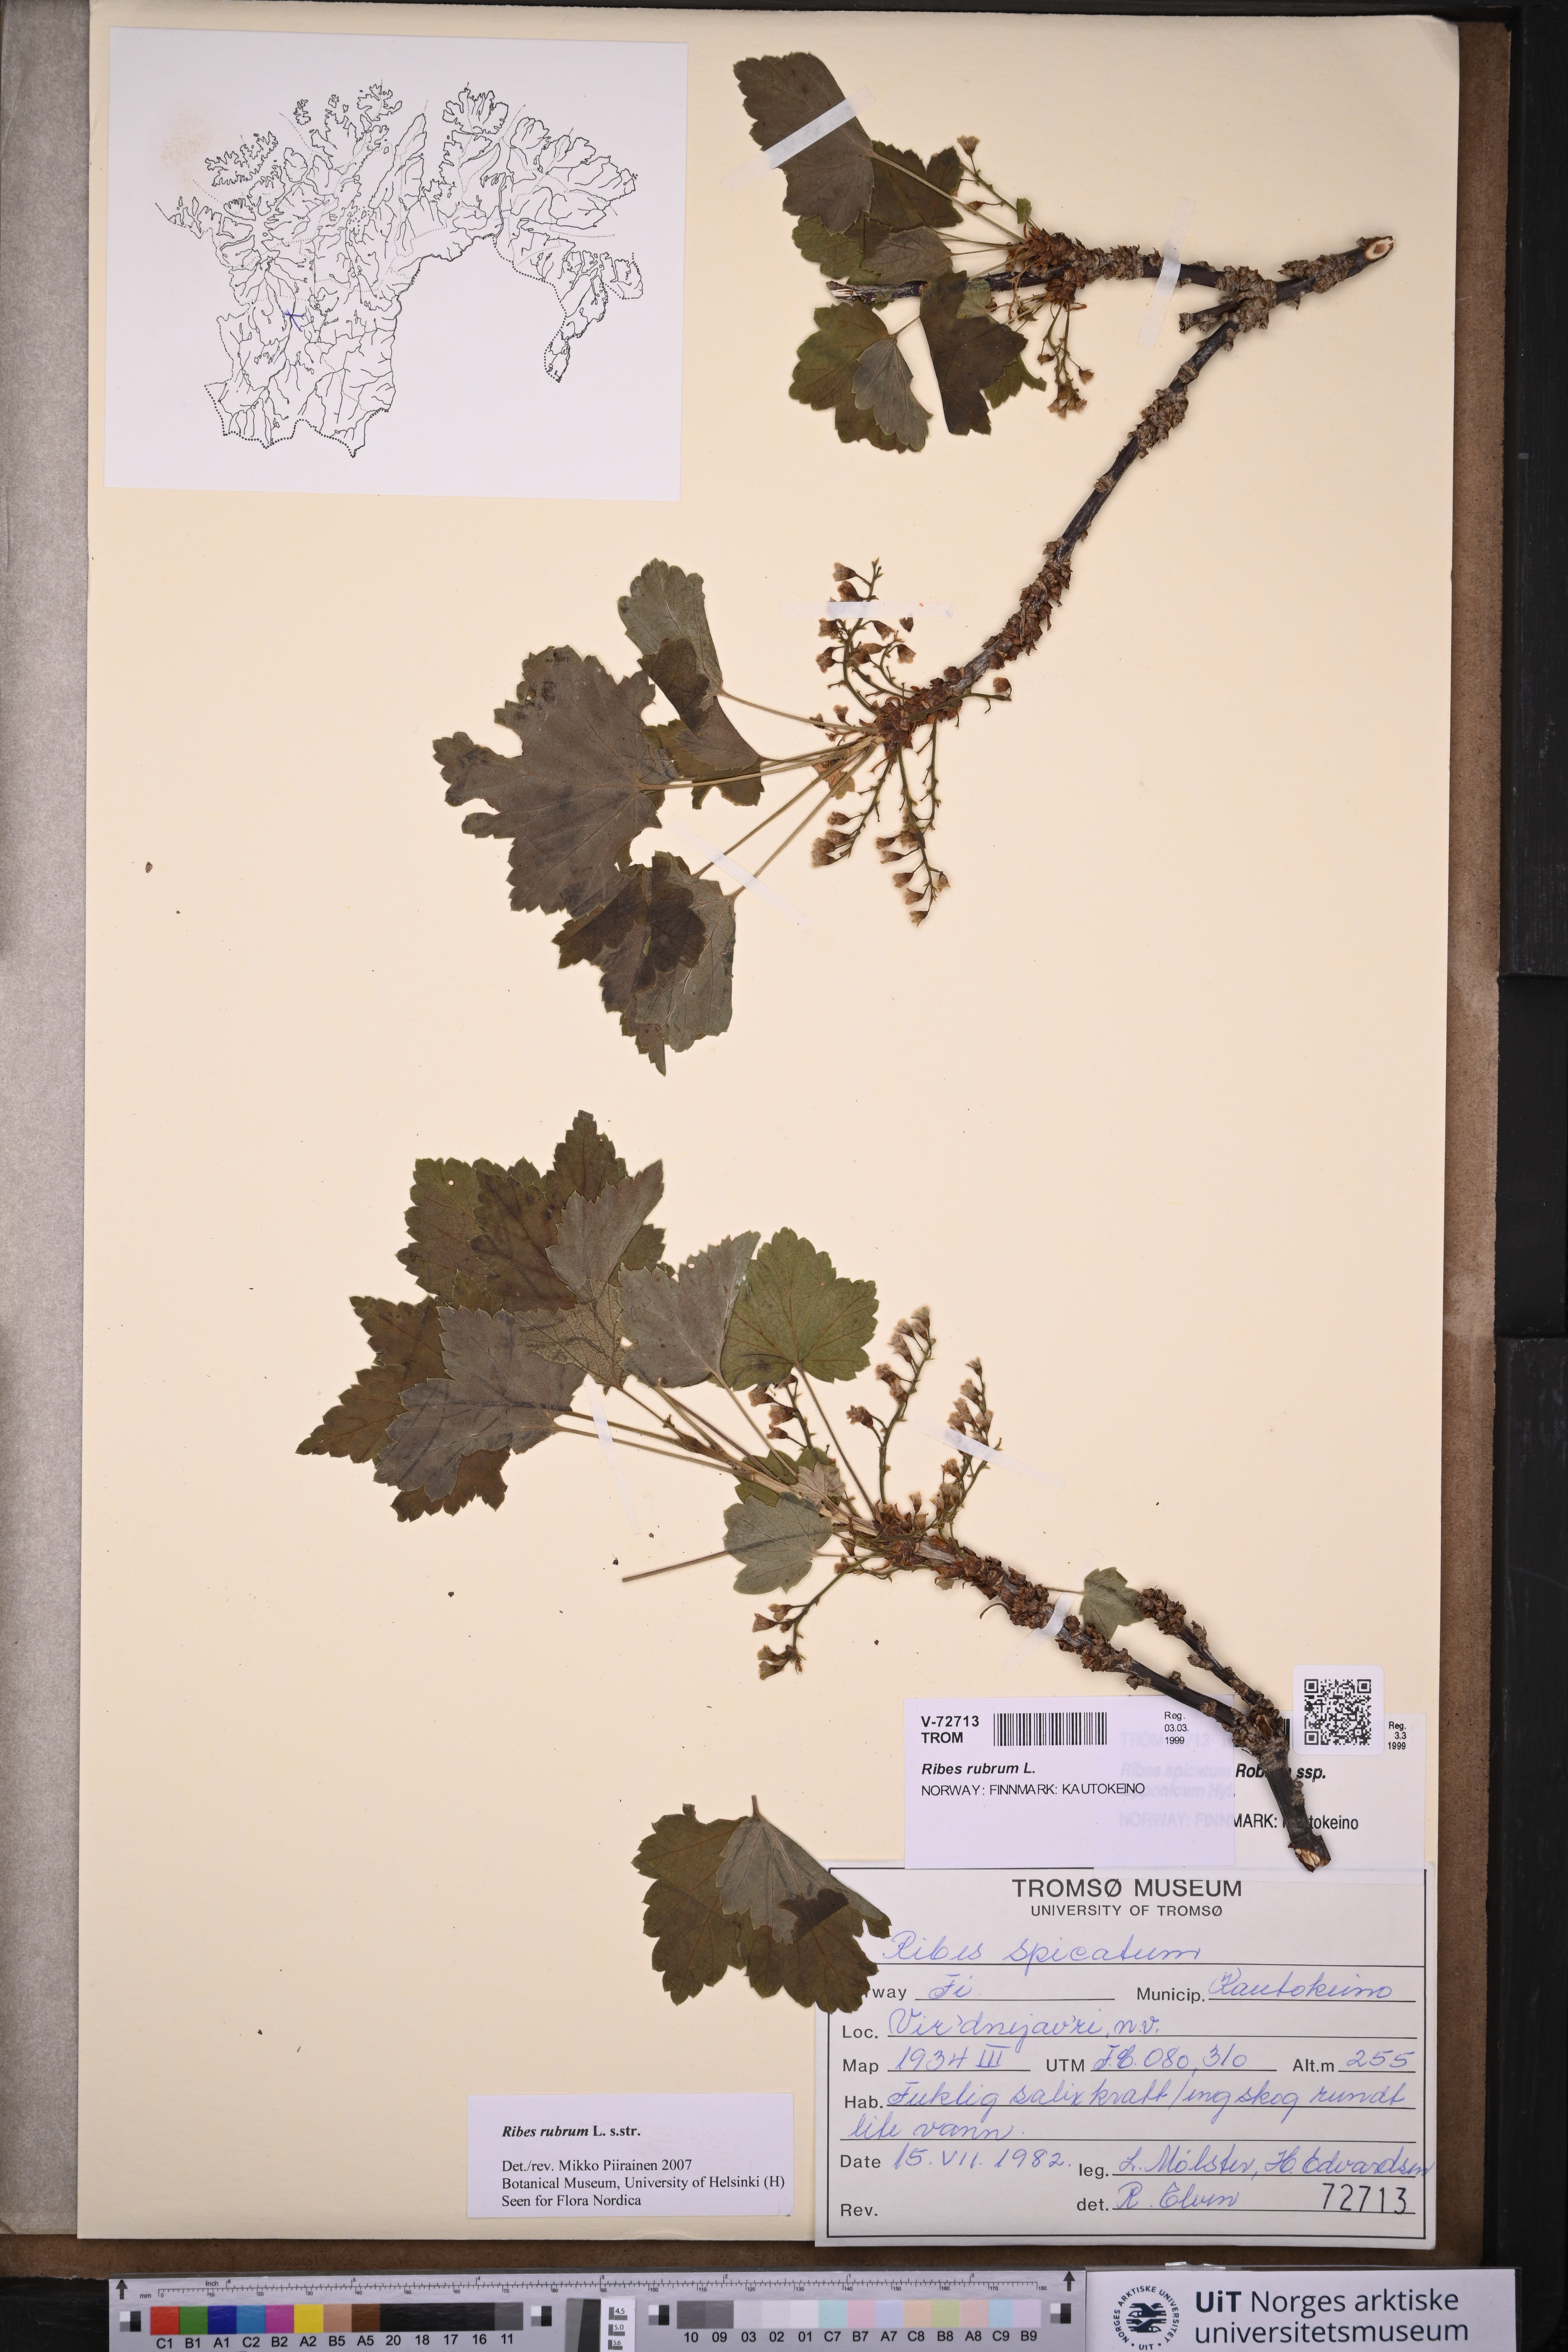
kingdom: Plantae
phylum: Tracheophyta
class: Magnoliopsida
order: Saxifragales
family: Grossulariaceae
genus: Ribes
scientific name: Ribes rubrum
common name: Red currant
